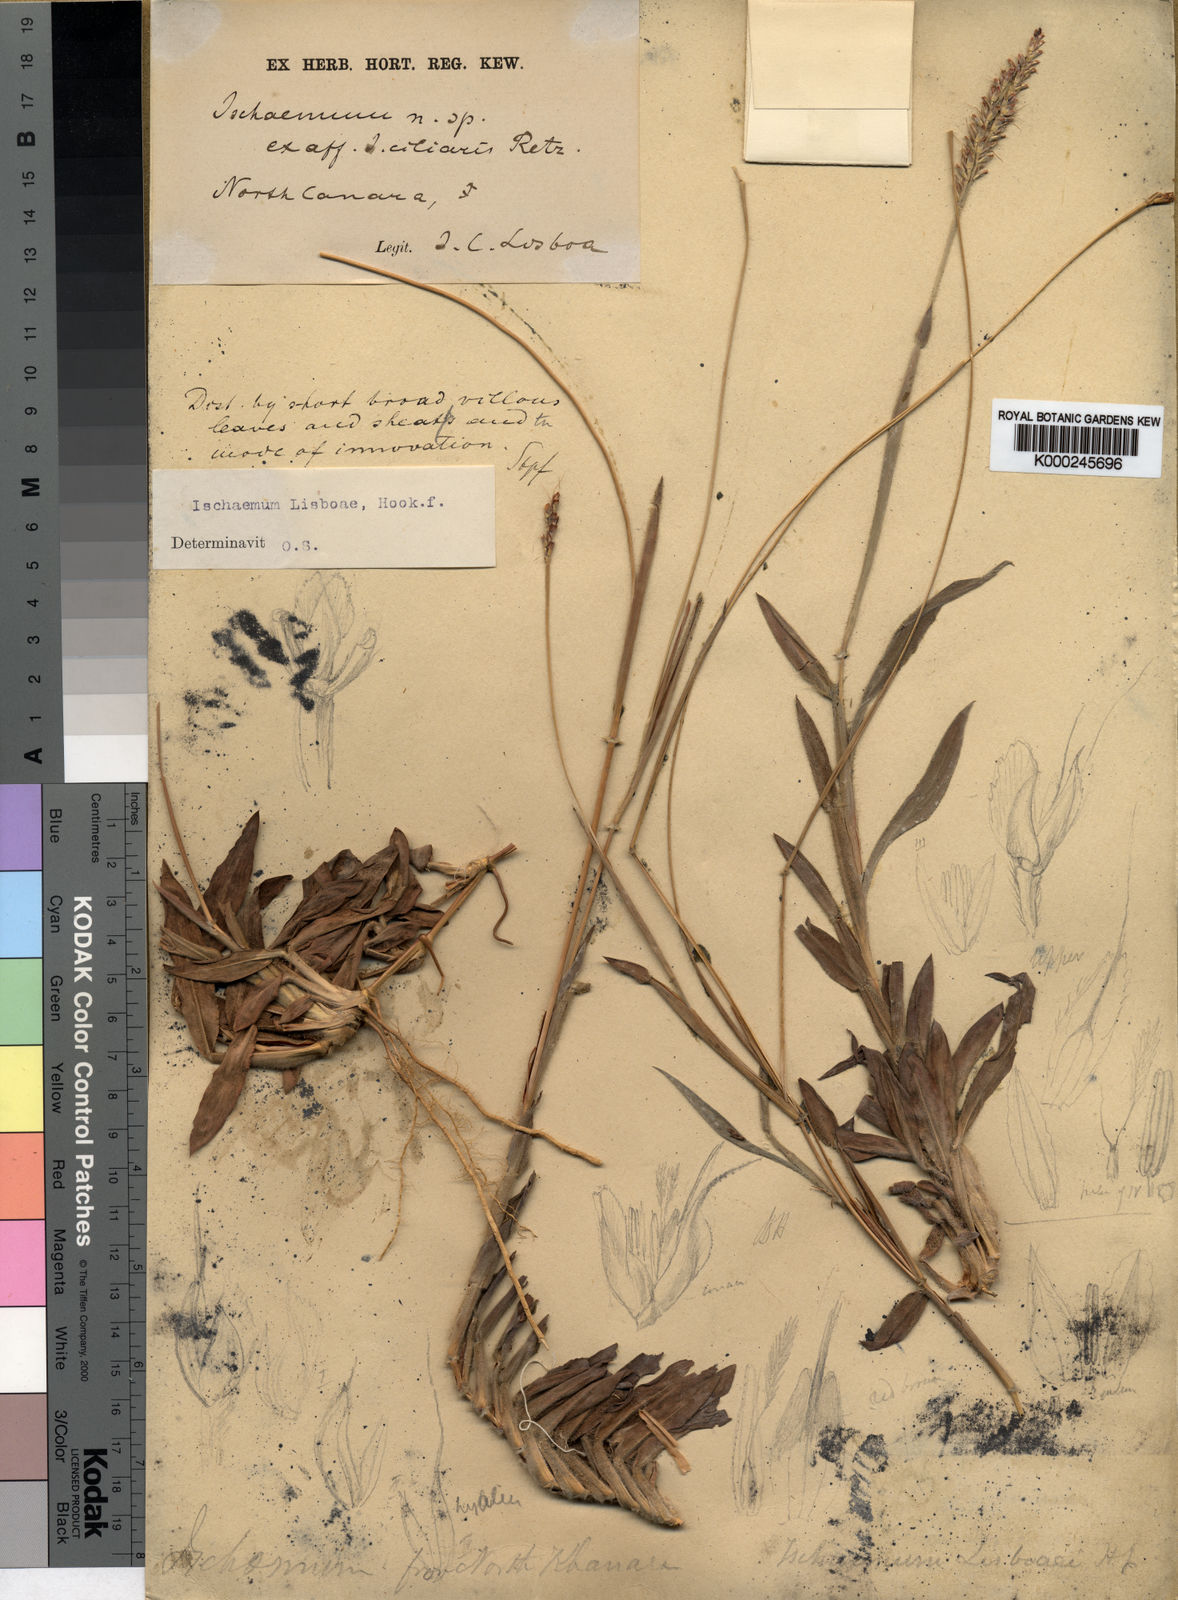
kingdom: Plantae
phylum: Tracheophyta
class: Liliopsida
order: Poales
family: Poaceae
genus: Ischaemum
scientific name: Ischaemum lisboae
